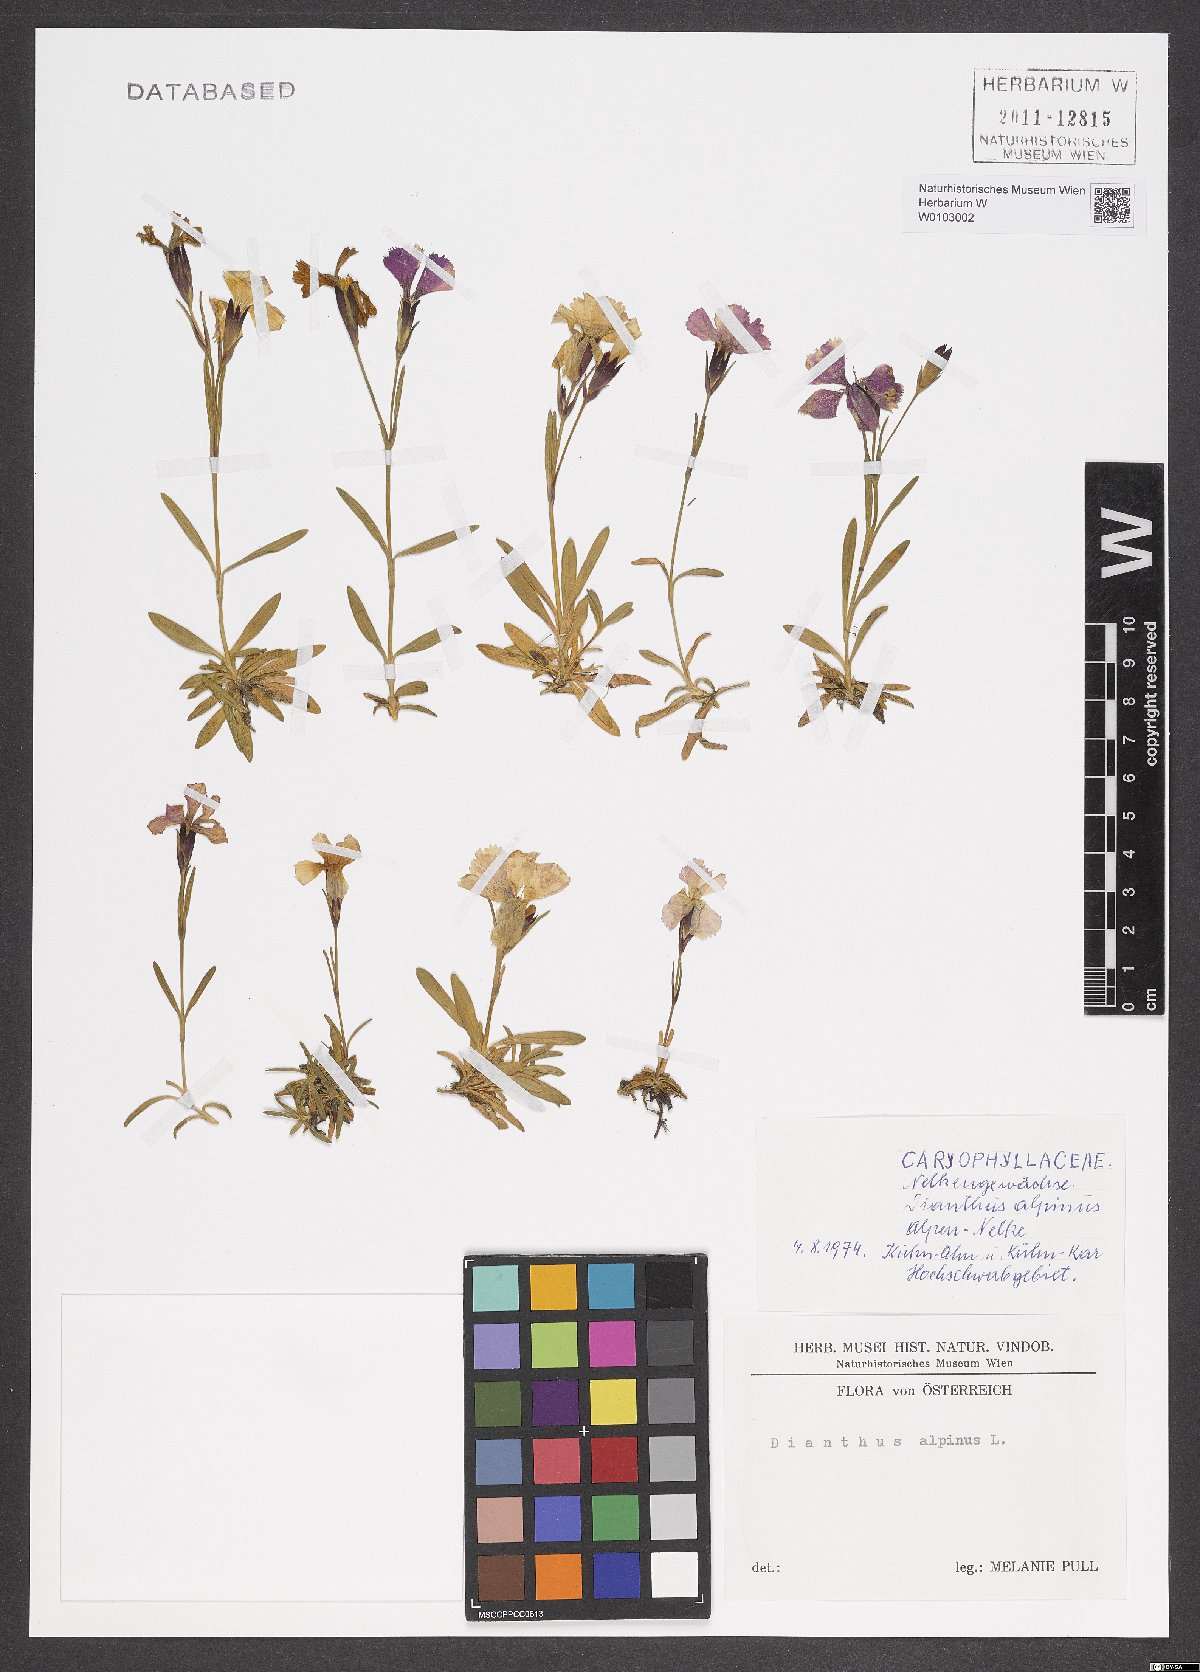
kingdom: Plantae
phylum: Tracheophyta
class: Magnoliopsida
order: Caryophyllales
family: Caryophyllaceae
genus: Dianthus
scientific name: Dianthus alpinus
